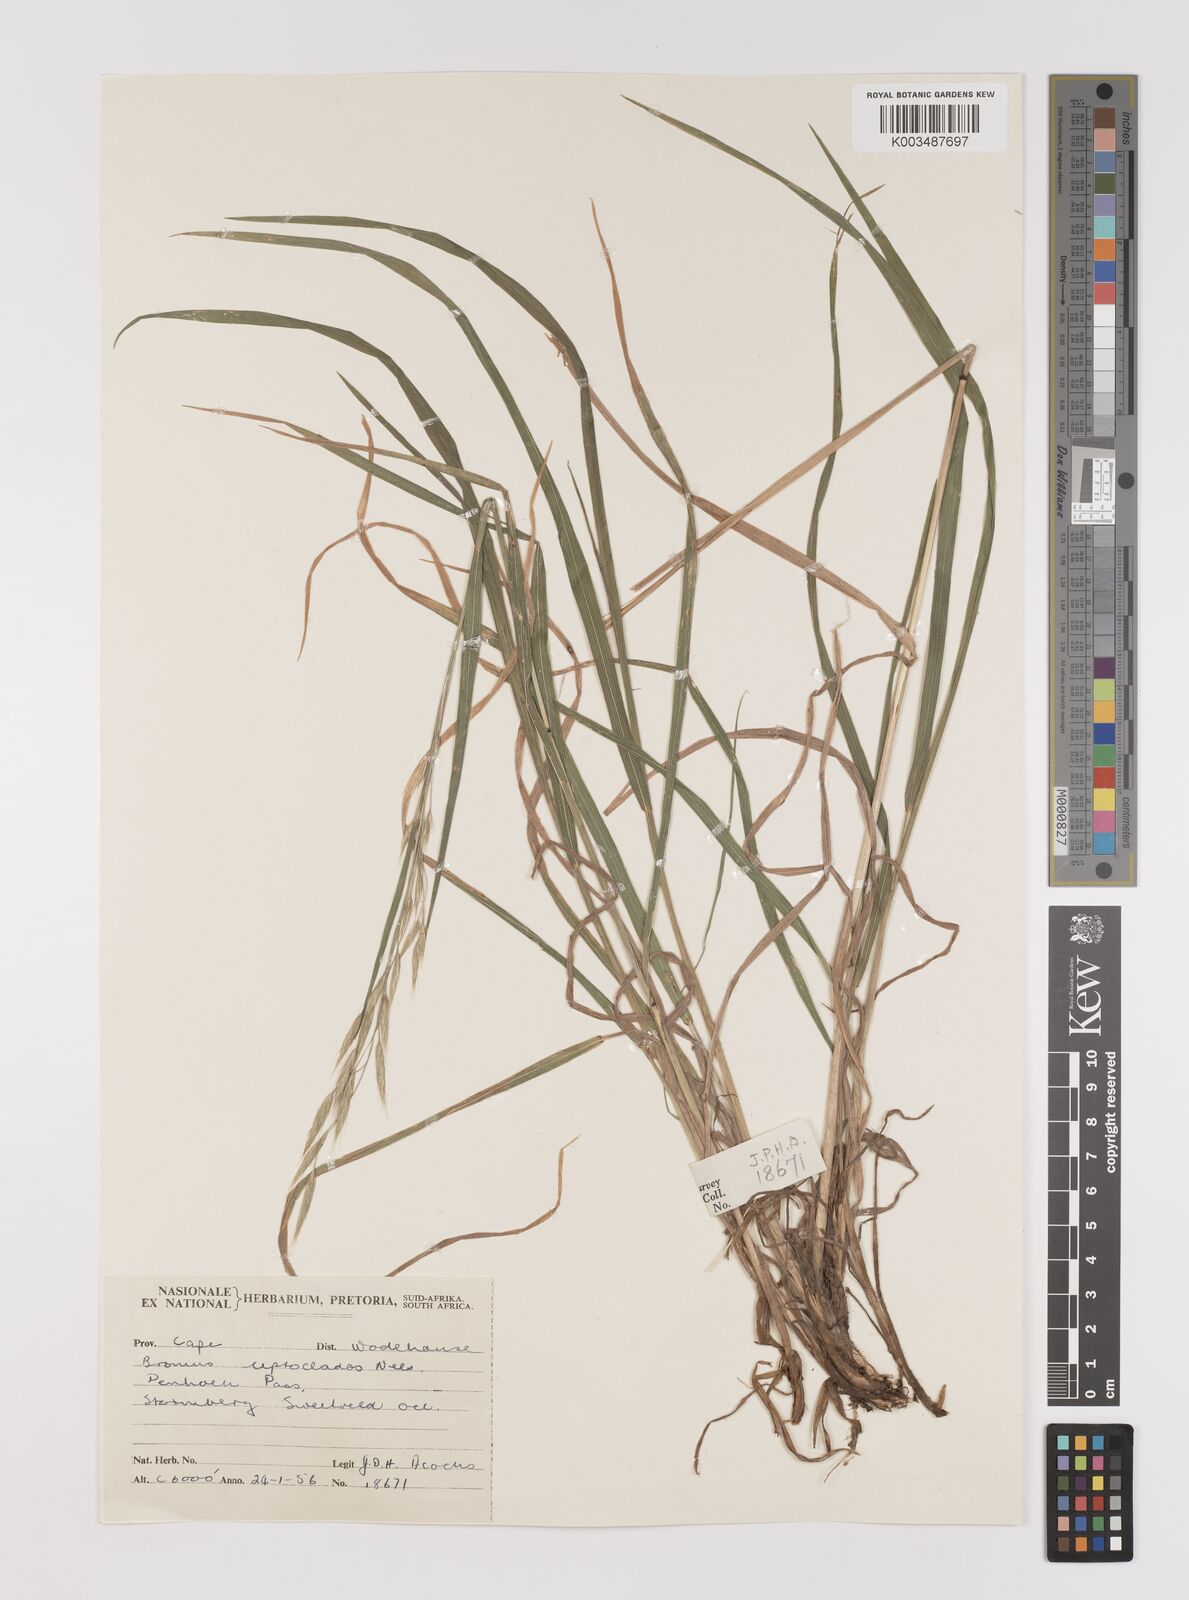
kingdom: Plantae
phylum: Tracheophyta
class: Liliopsida
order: Poales
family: Poaceae
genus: Bromus
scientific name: Bromus leptoclados
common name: Mountain bromegrass
